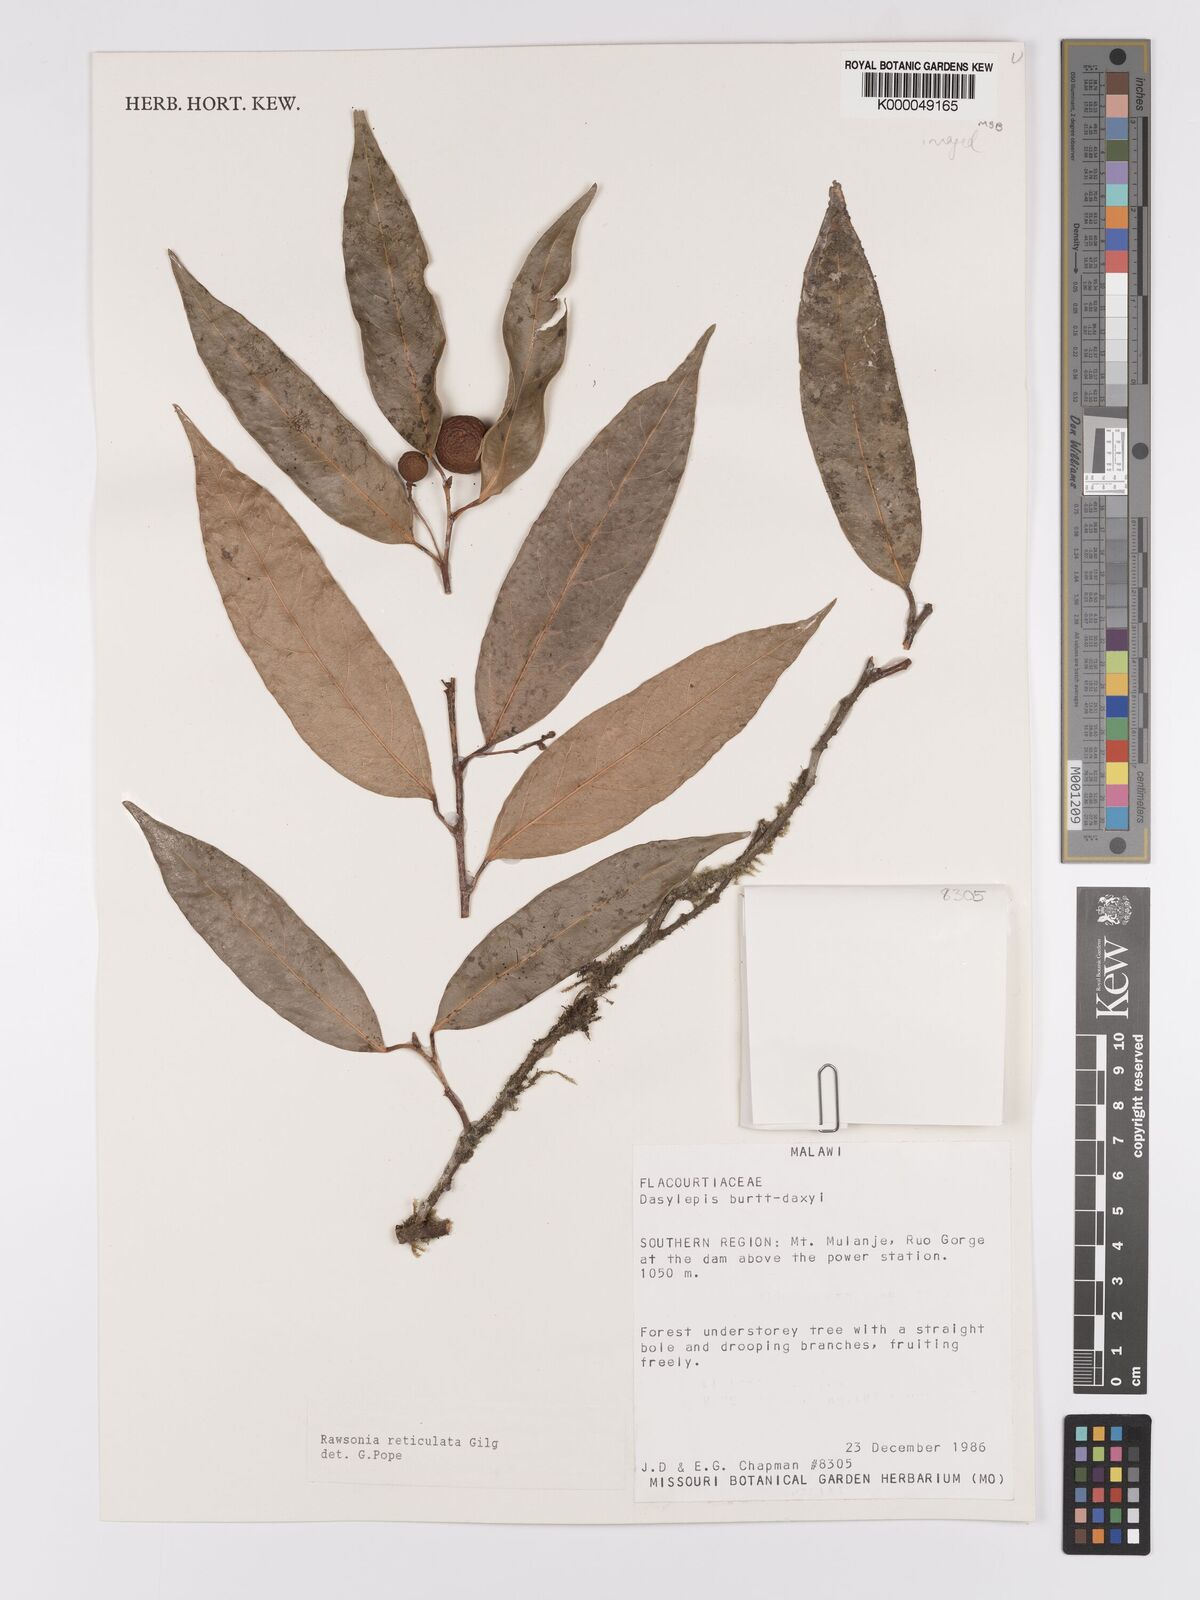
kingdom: Plantae
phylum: Tracheophyta
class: Magnoliopsida
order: Malpighiales
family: Achariaceae
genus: Rawsonia
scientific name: Rawsonia burtt-davyi
